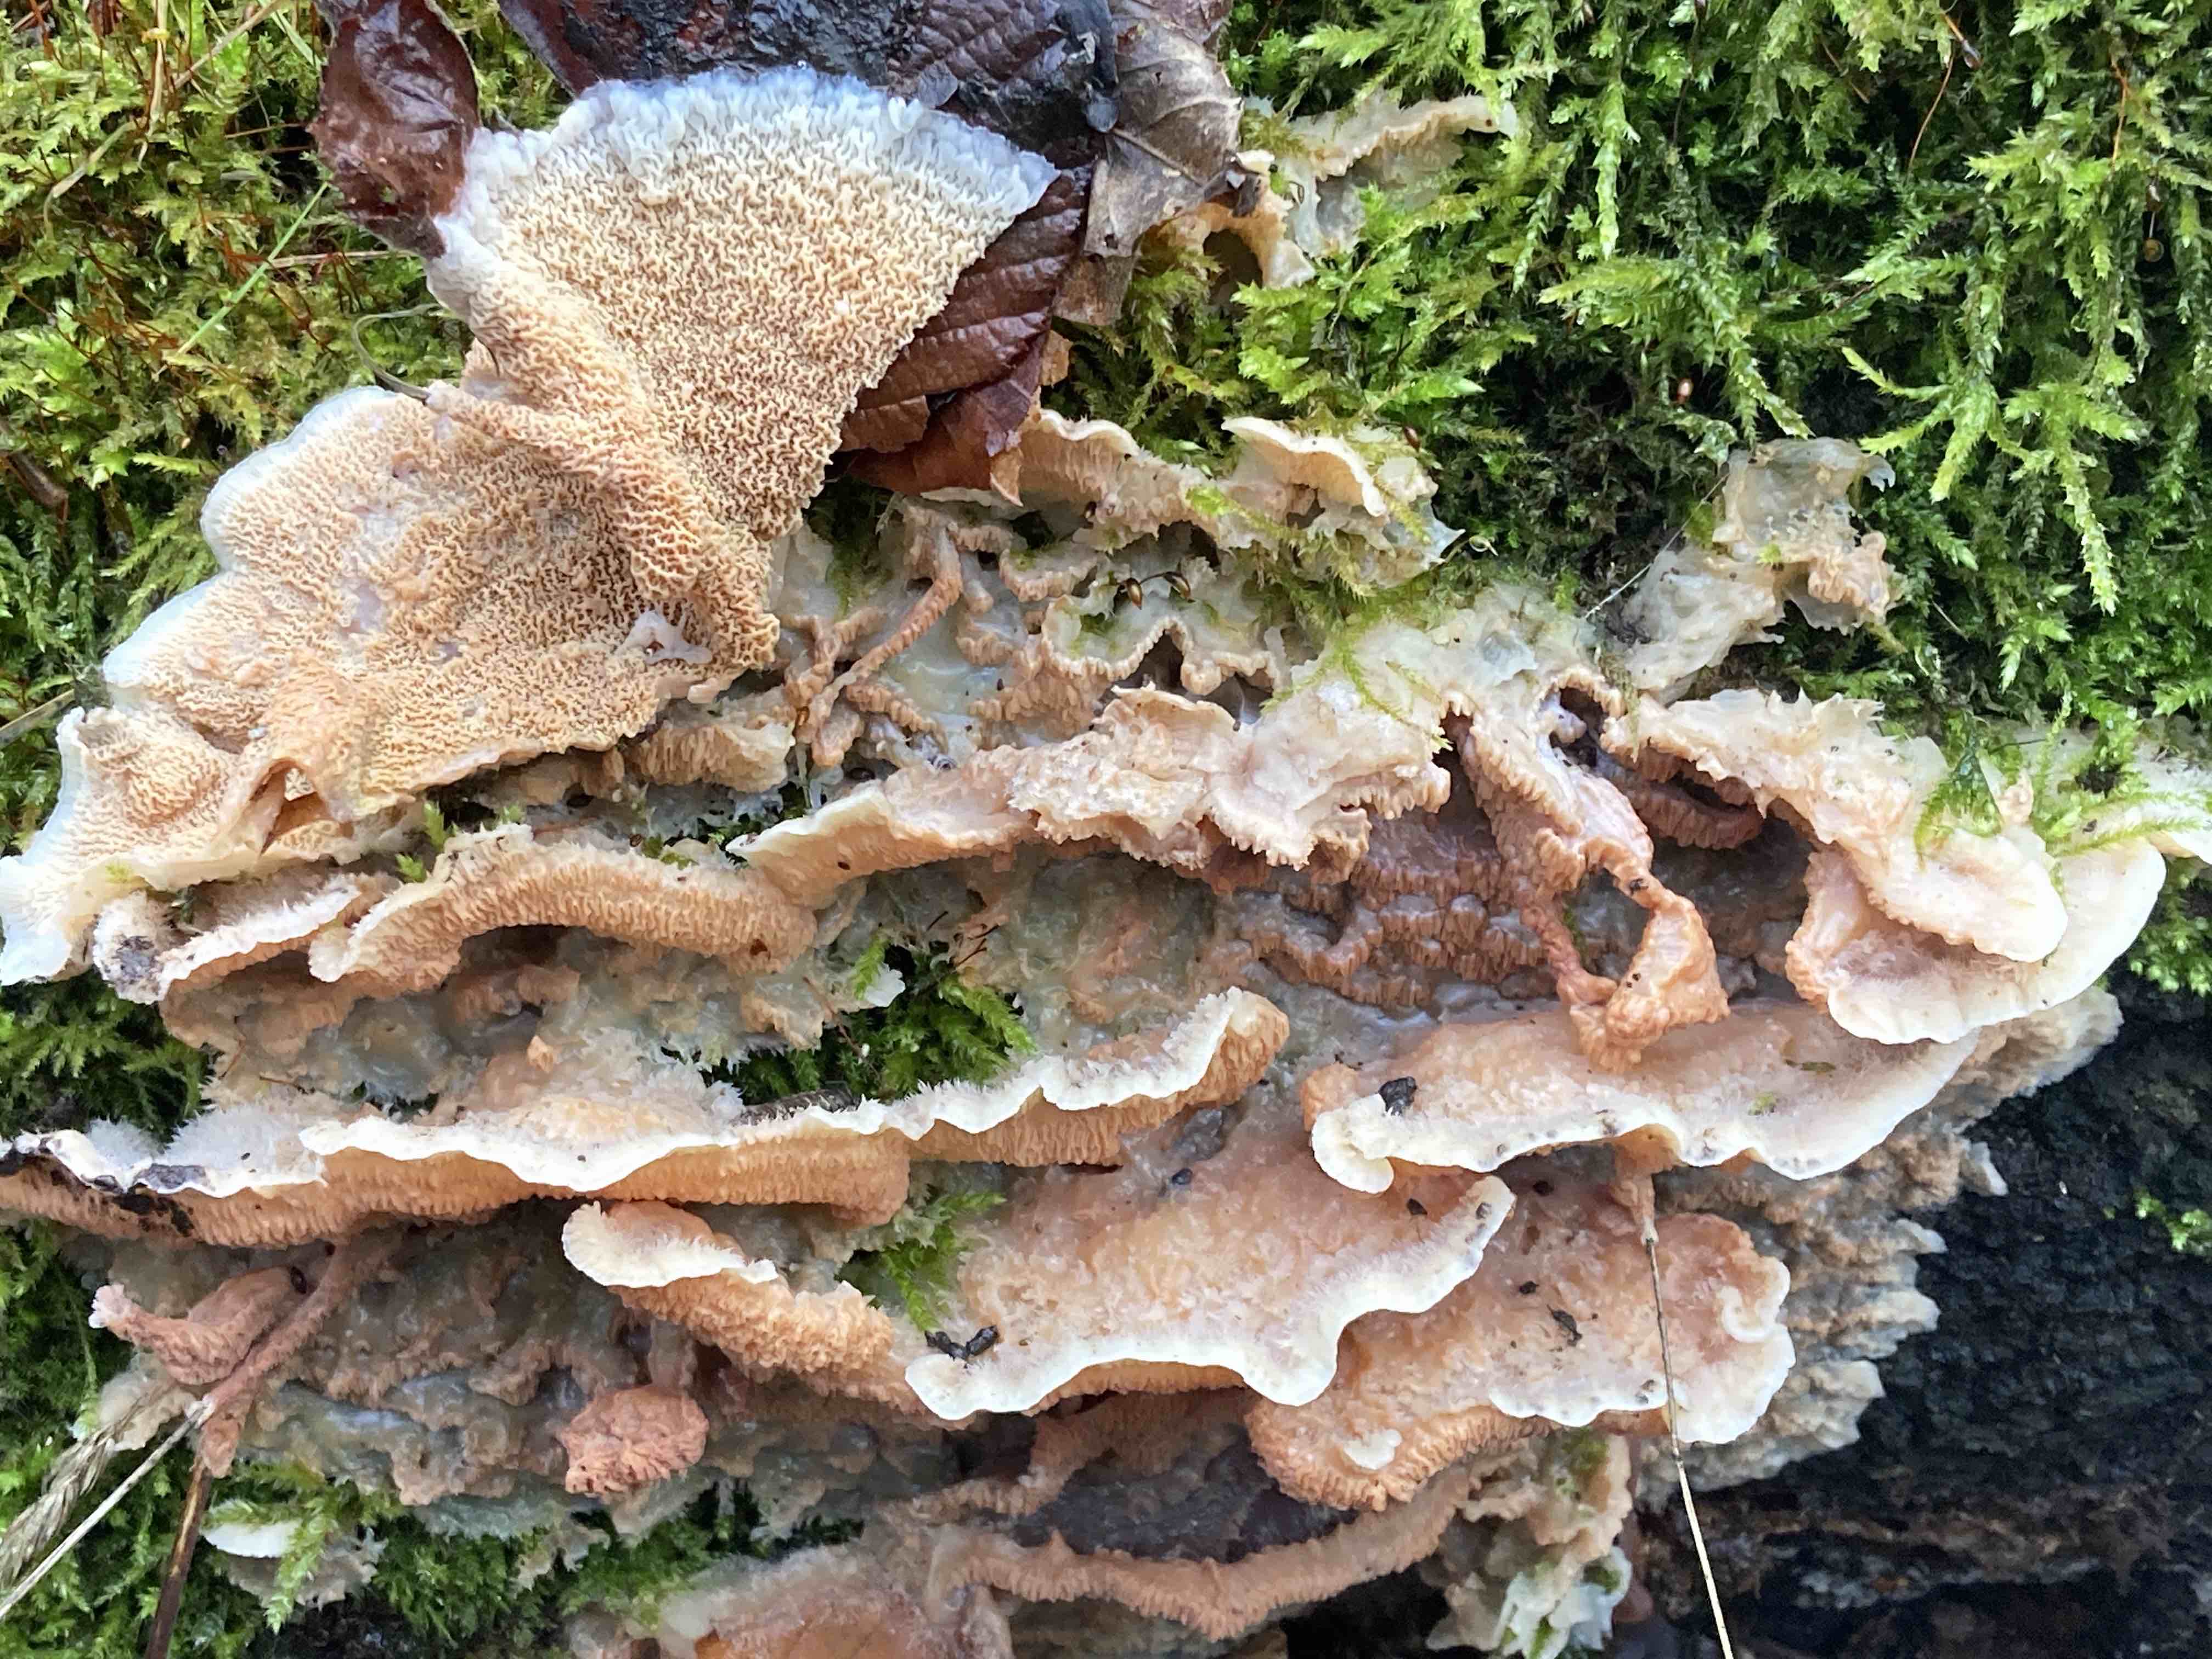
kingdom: Fungi
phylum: Basidiomycota
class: Agaricomycetes
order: Polyporales
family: Meruliaceae
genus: Phlebia
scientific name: Phlebia tremellosa
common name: bævrende åresvamp
